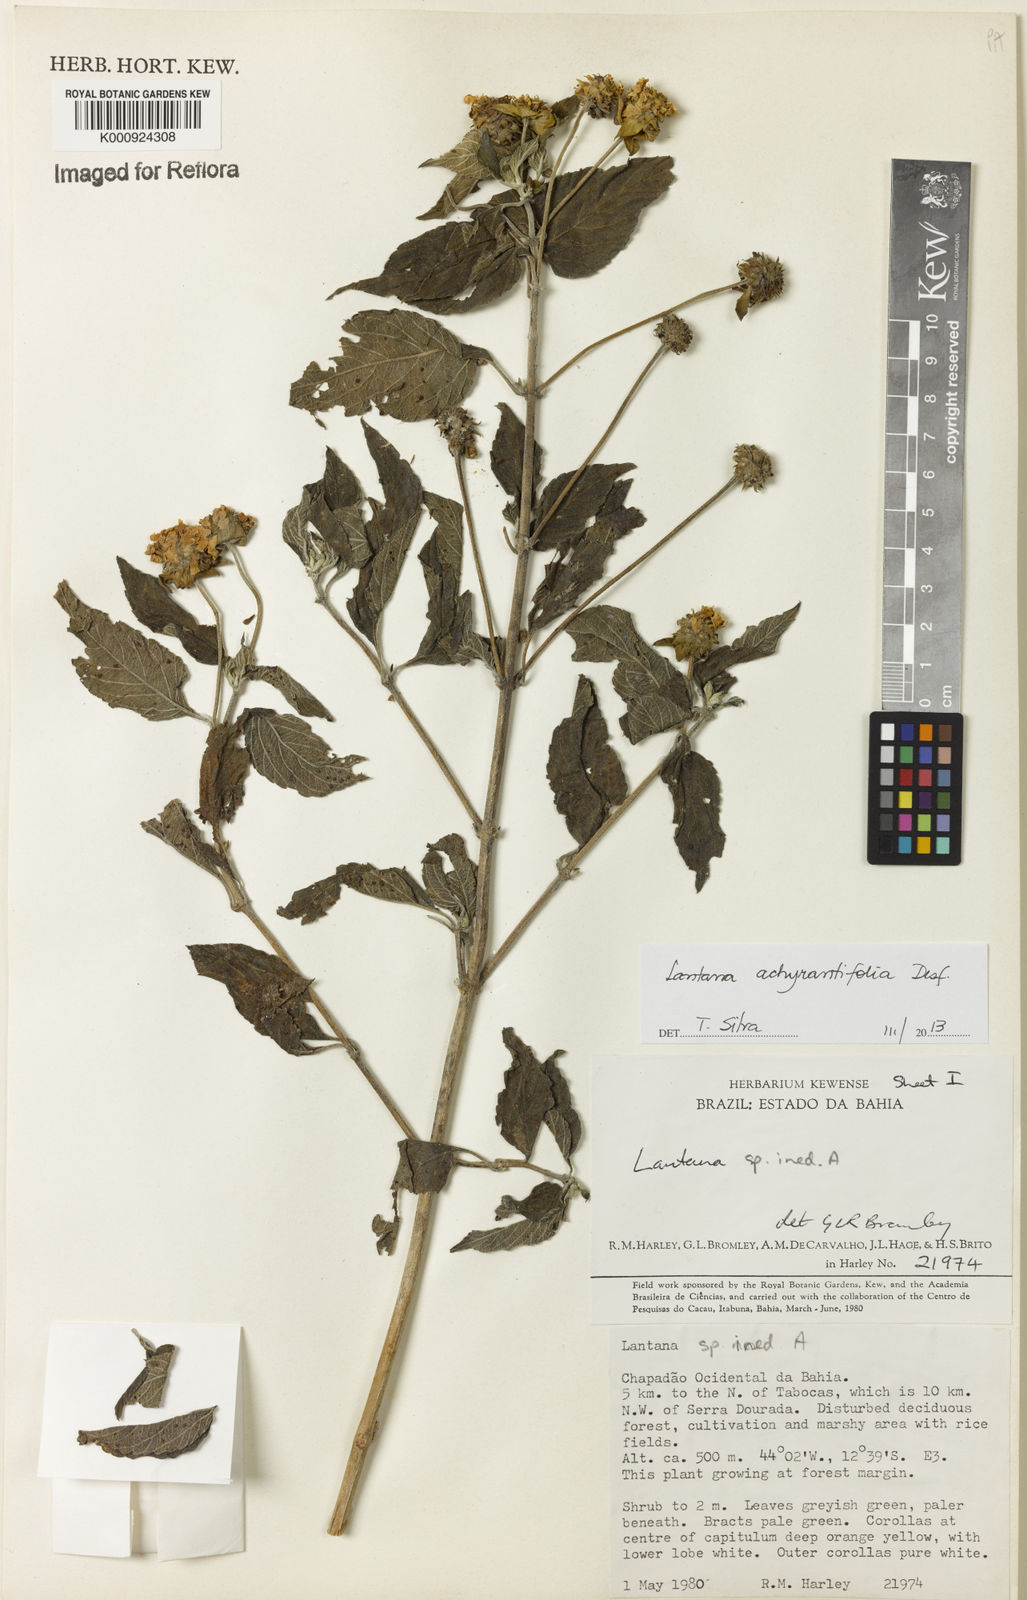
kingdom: Plantae
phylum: Tracheophyta
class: Magnoliopsida
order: Lamiales
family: Verbenaceae
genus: Lantana
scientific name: Lantana achyranthifolia
